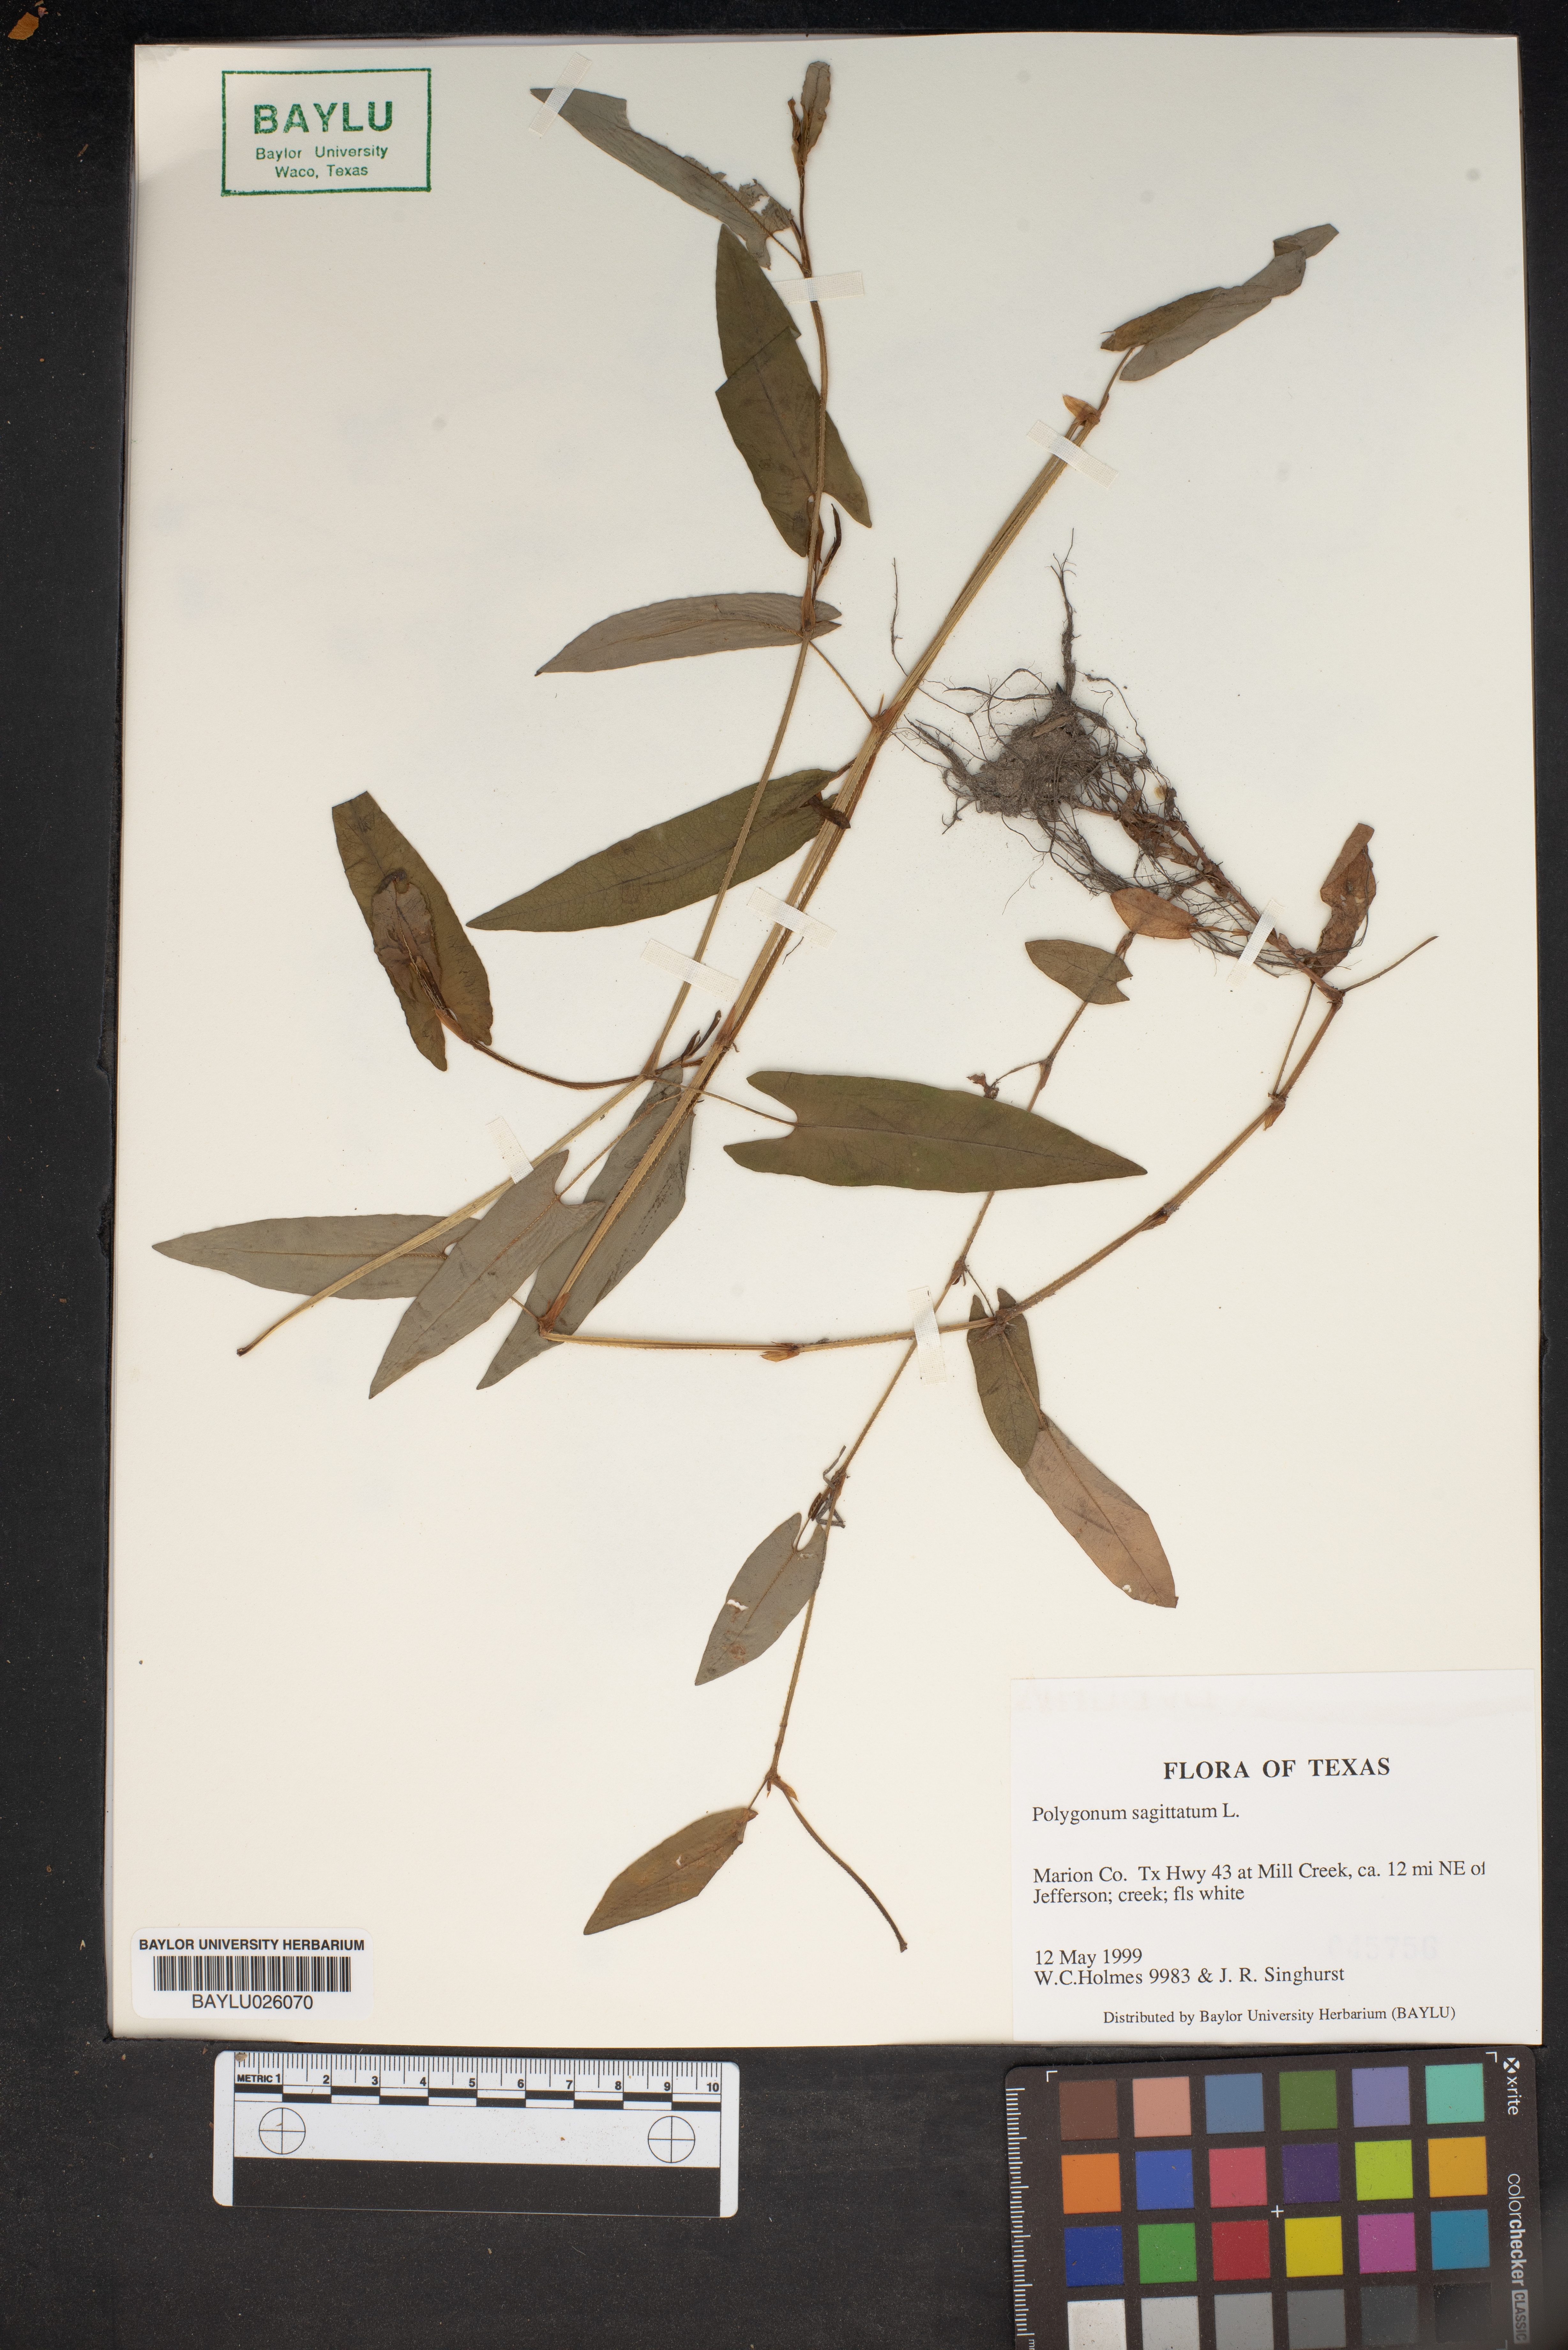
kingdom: Plantae
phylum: Tracheophyta
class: Magnoliopsida
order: Caryophyllales
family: Polygonaceae
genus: Persicaria
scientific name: Persicaria sagittata
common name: American tearthumb
